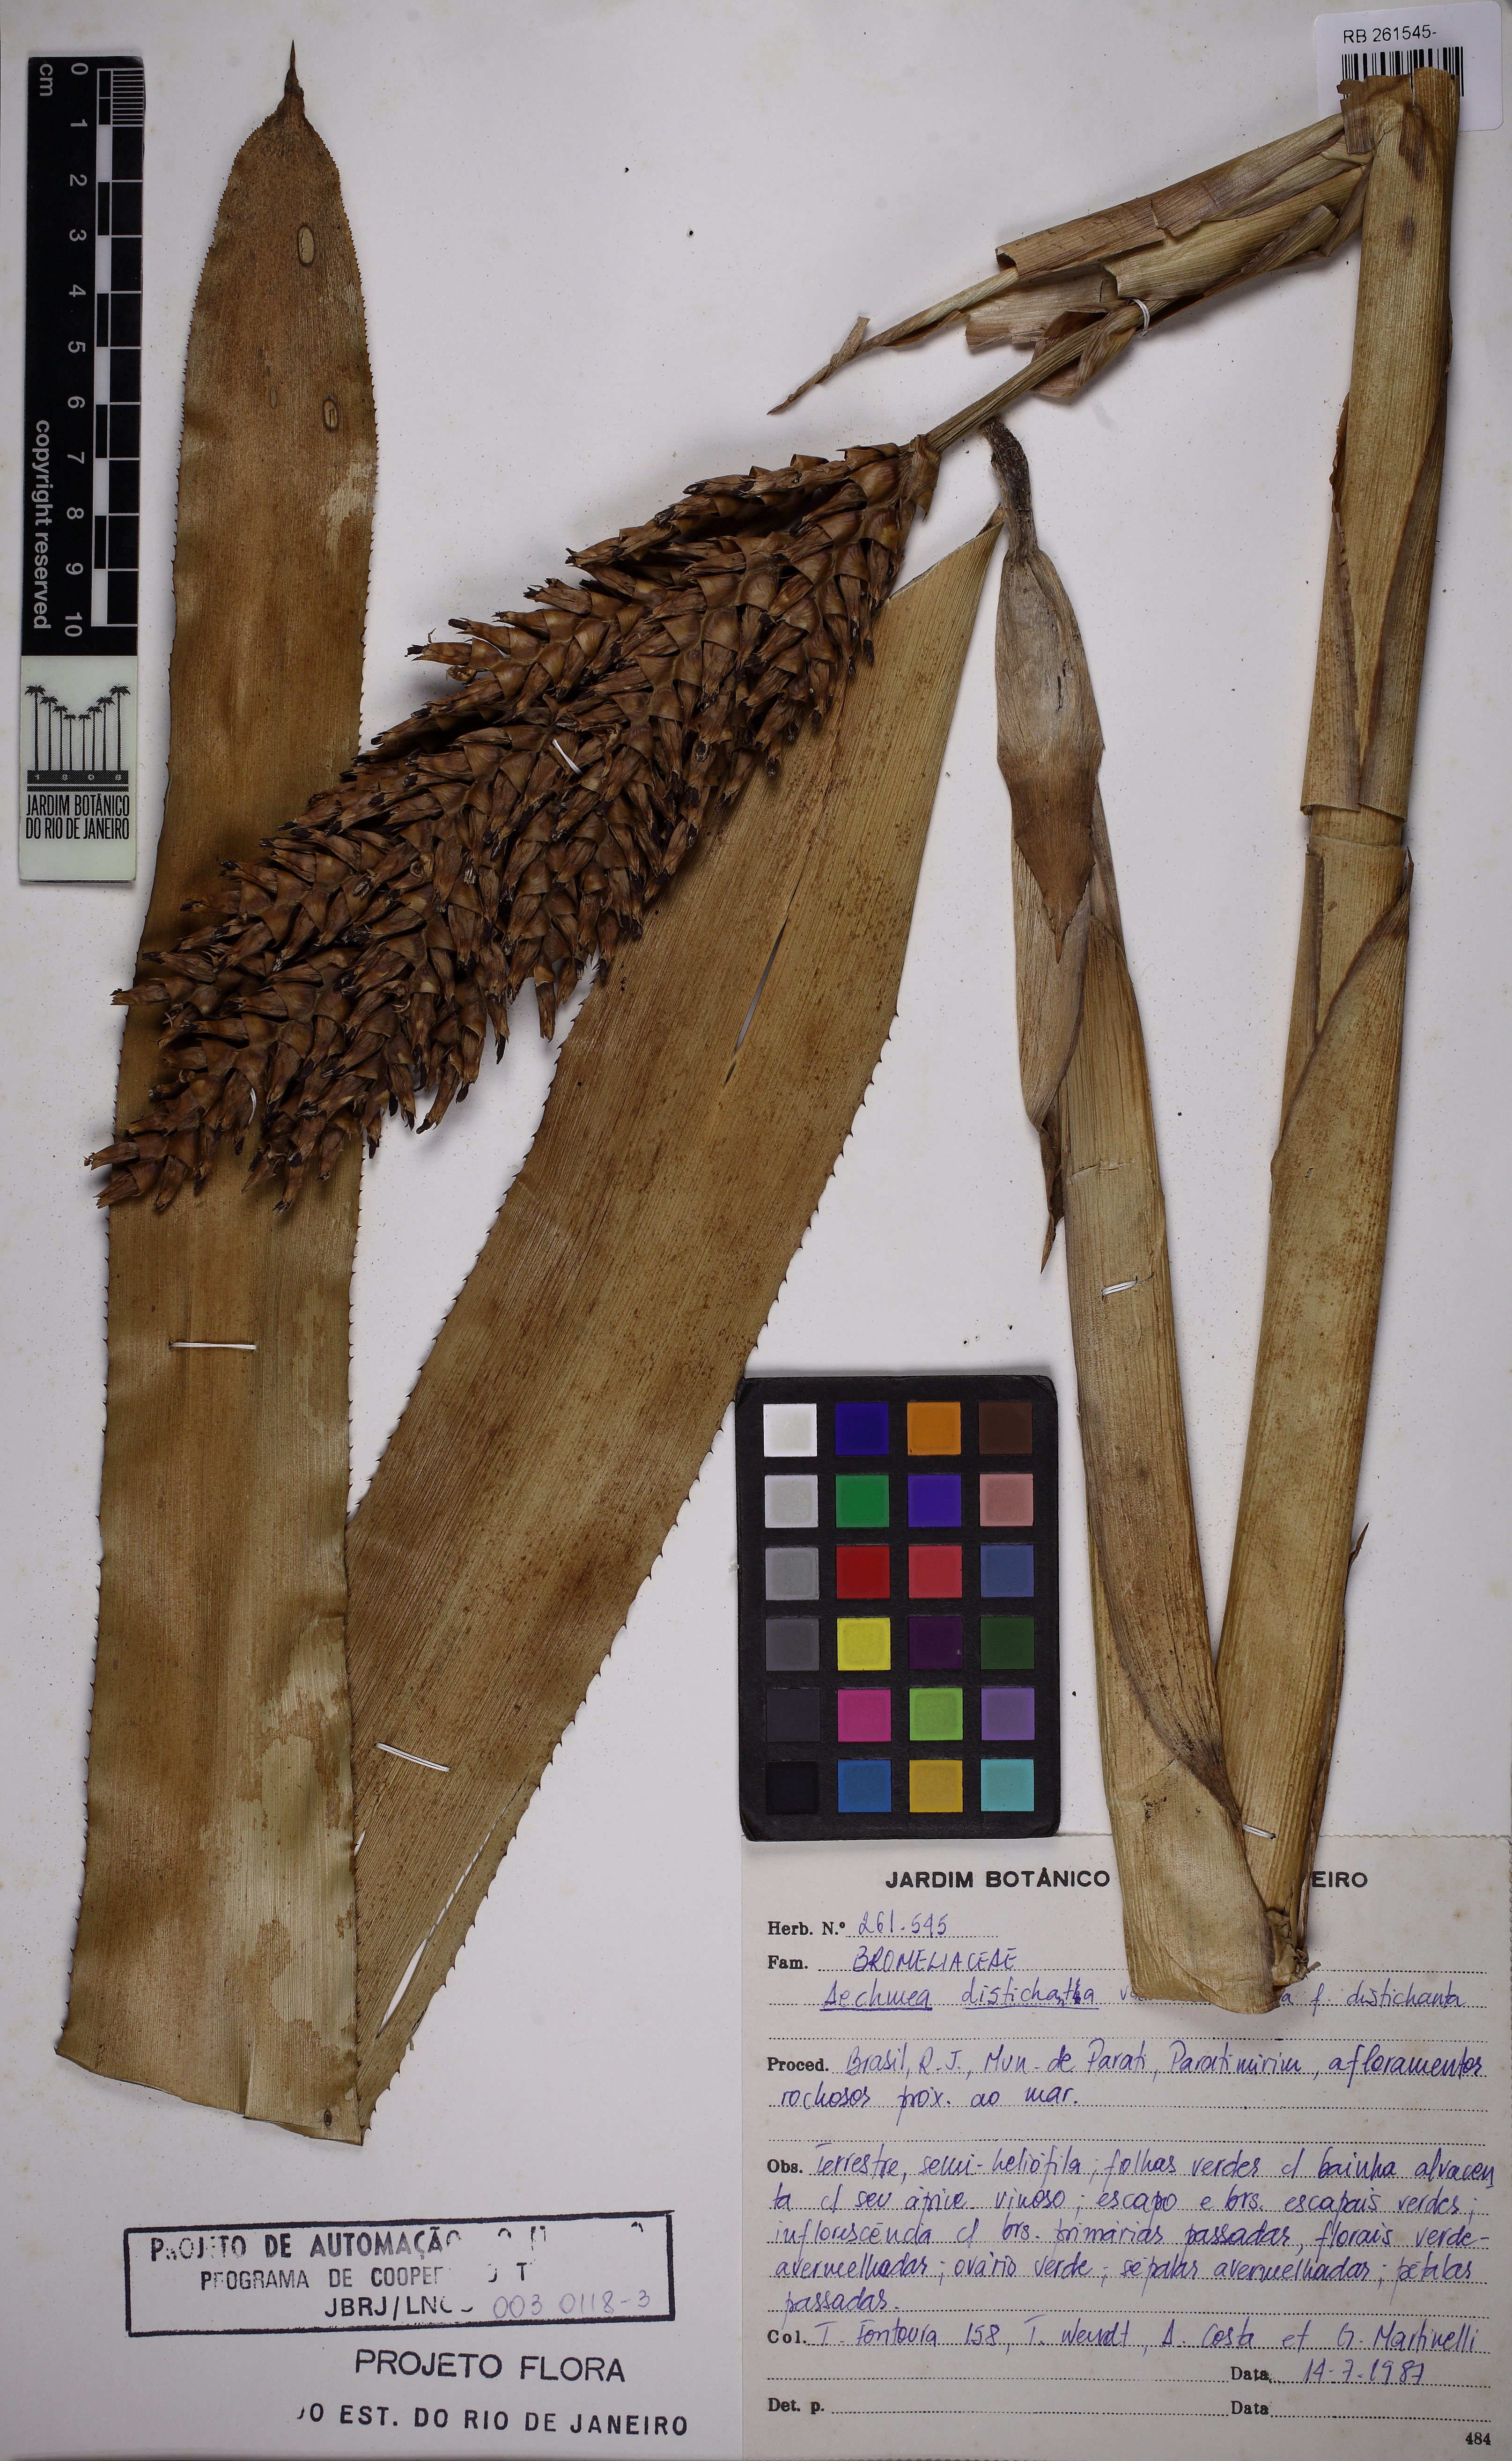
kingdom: Plantae
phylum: Tracheophyta
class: Liliopsida
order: Poales
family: Bromeliaceae
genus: Aechmea
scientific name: Aechmea distichantha
